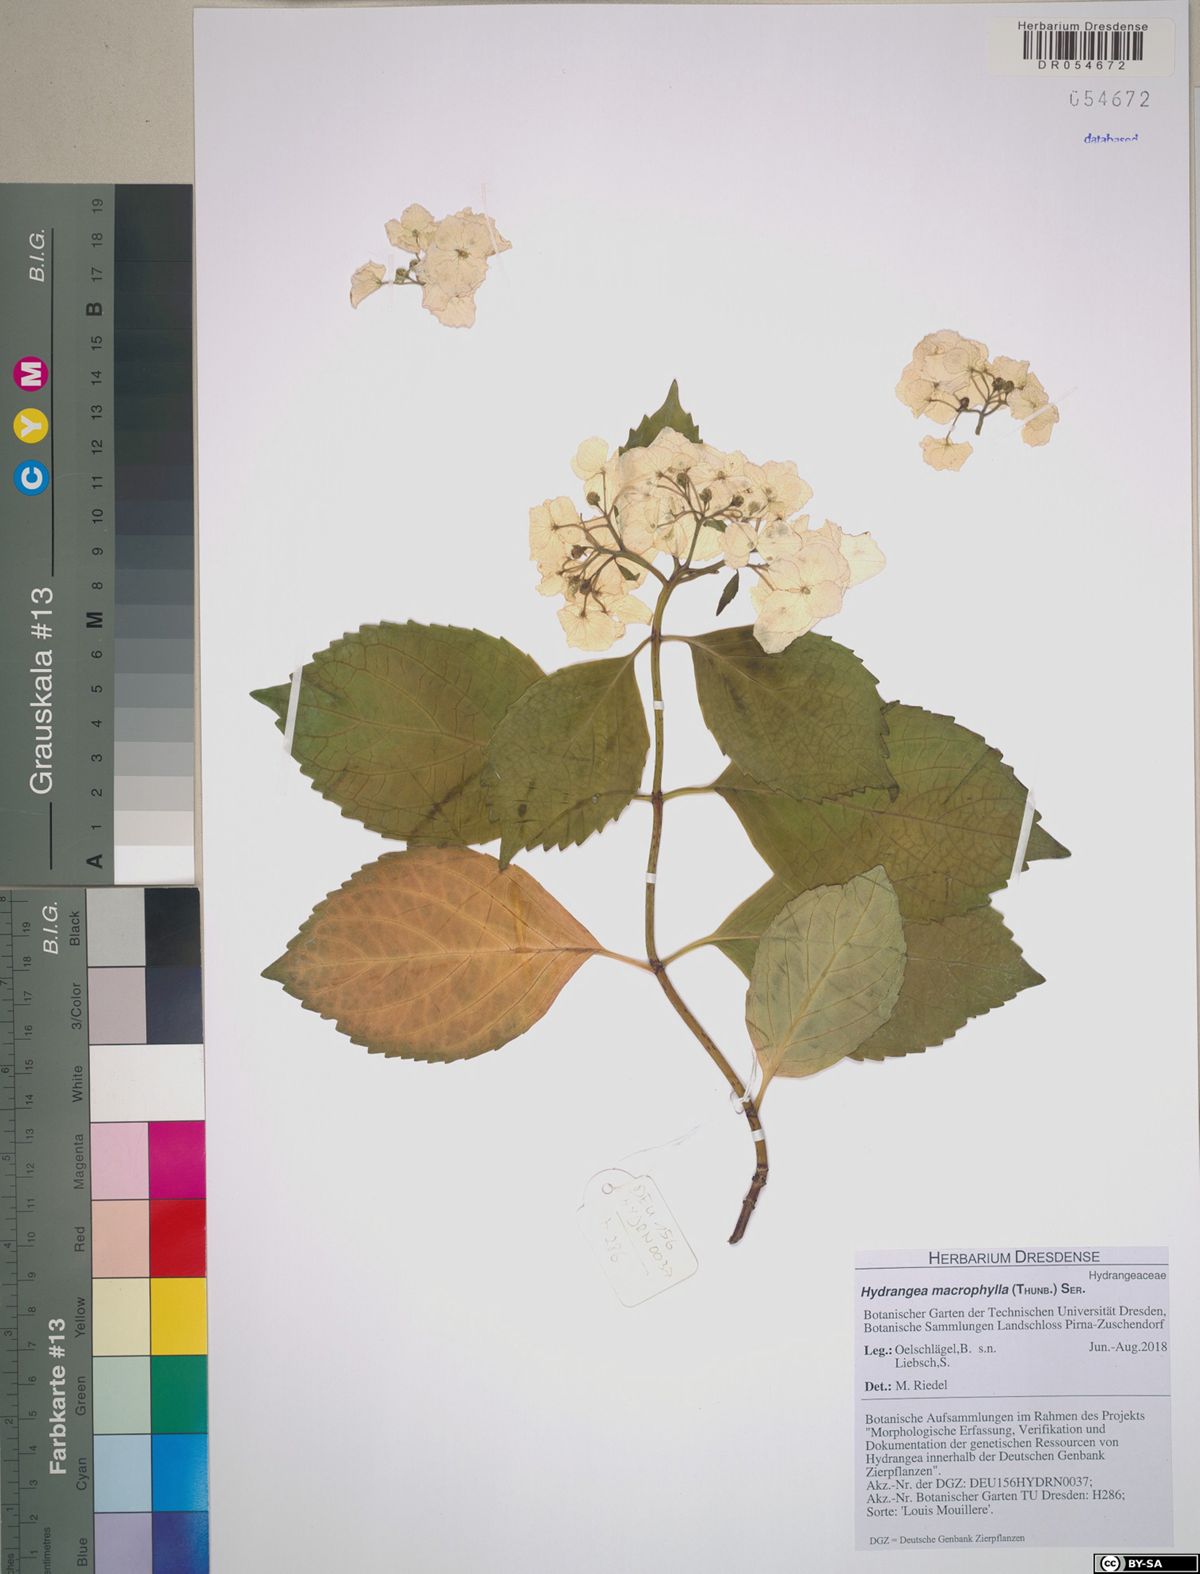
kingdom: Plantae
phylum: Tracheophyta
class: Magnoliopsida
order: Cornales
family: Hydrangeaceae
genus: Hydrangea
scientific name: Hydrangea macrophylla
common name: Hydrangea
